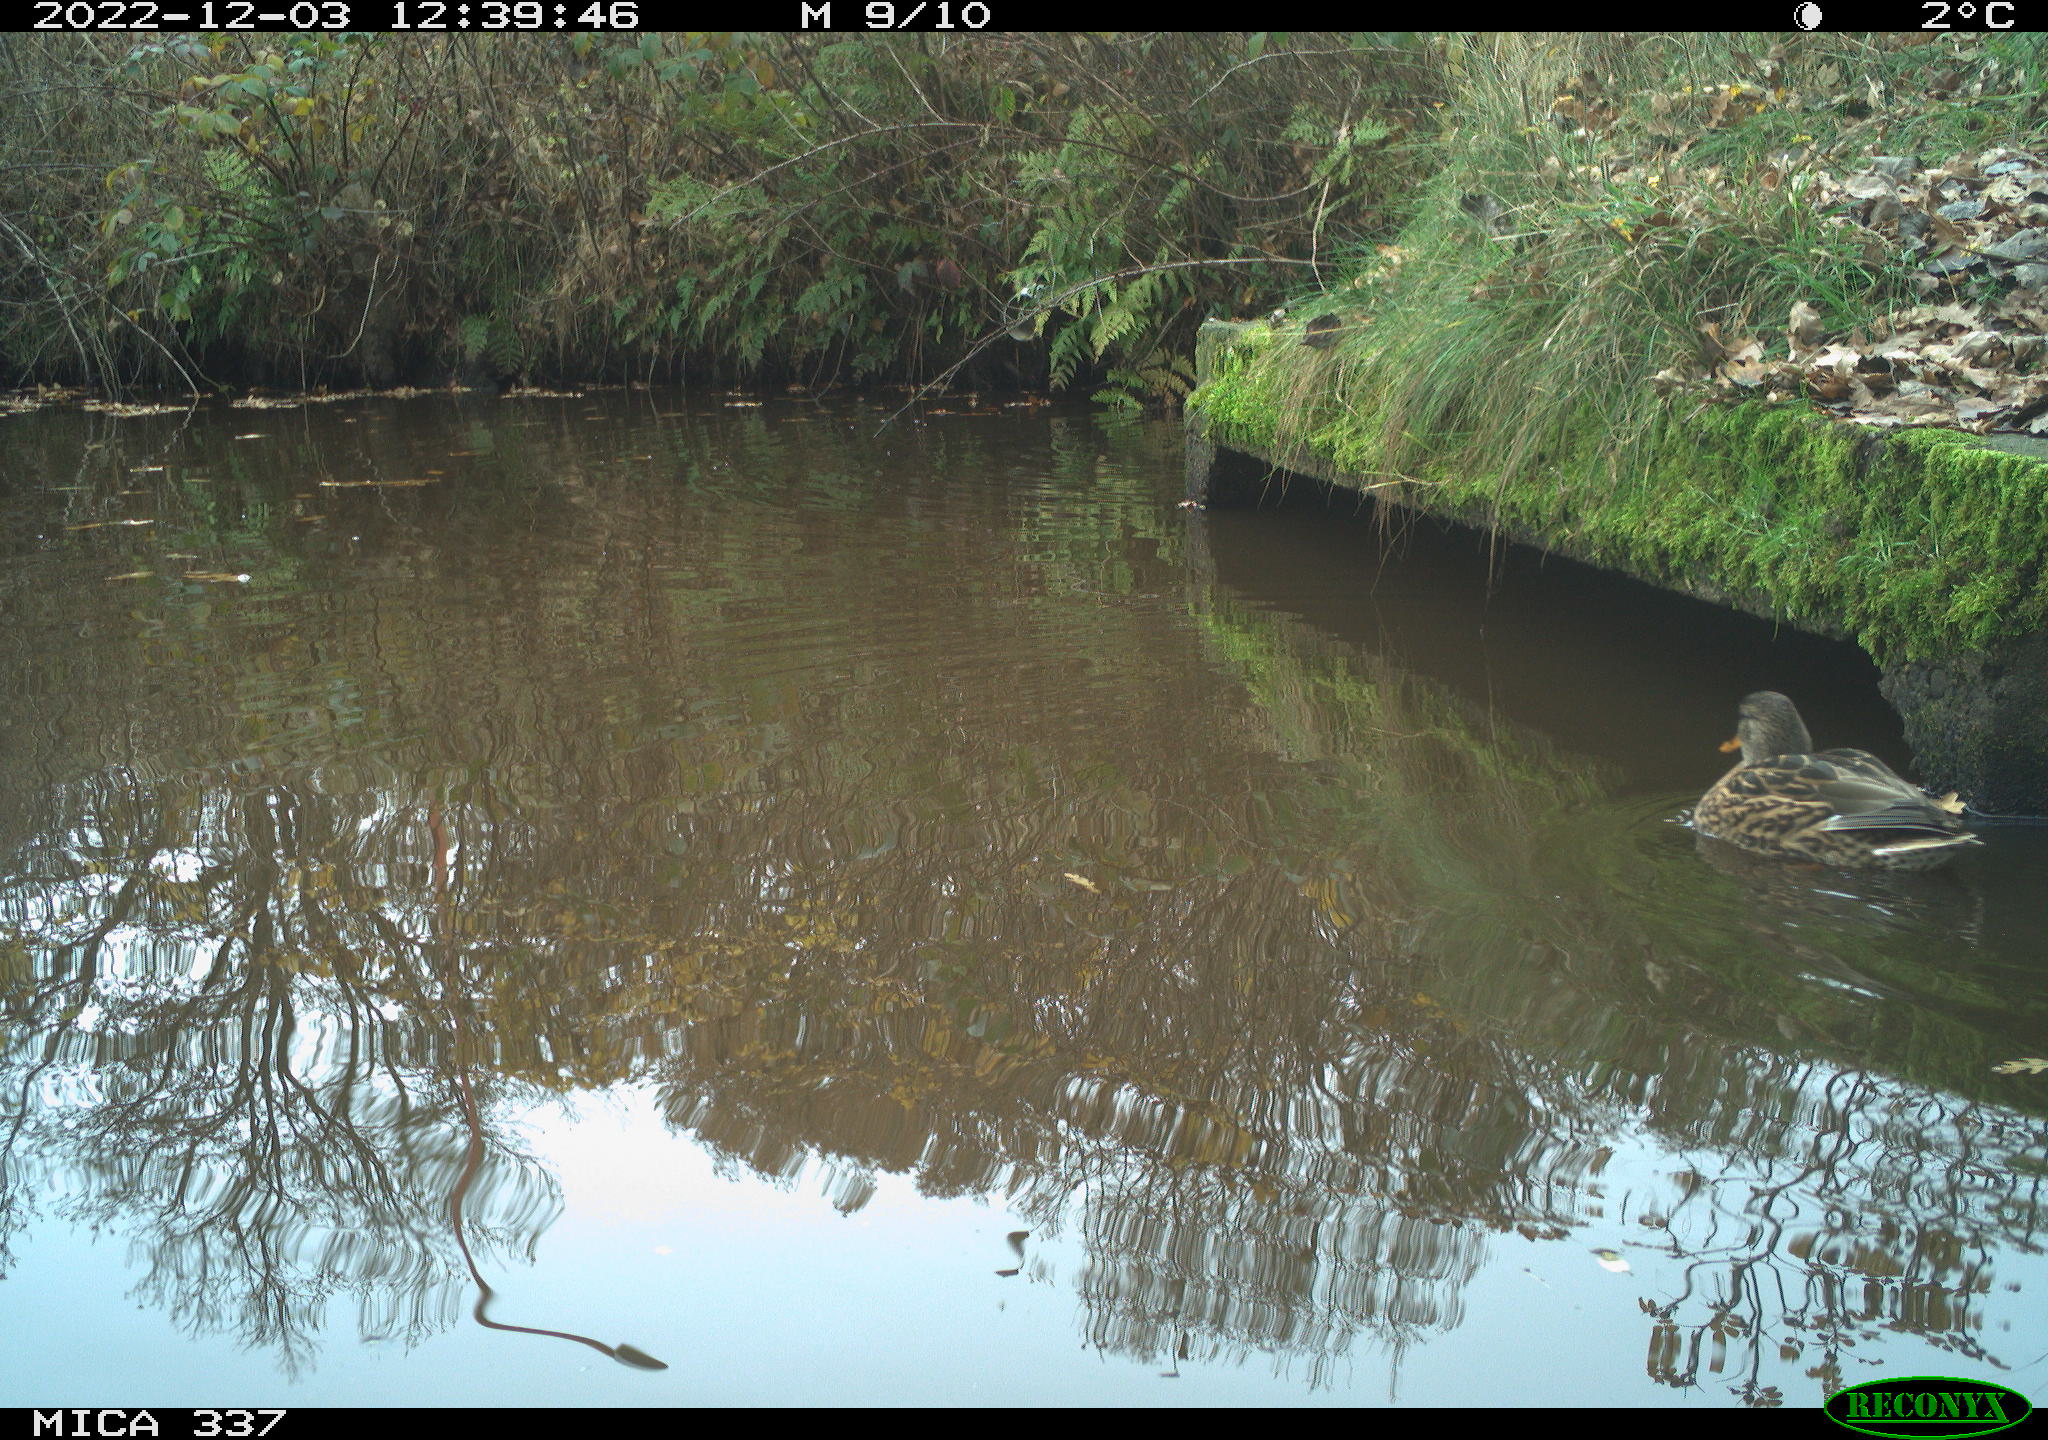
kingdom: Animalia
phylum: Chordata
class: Aves
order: Anseriformes
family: Anatidae
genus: Anas
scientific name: Anas
